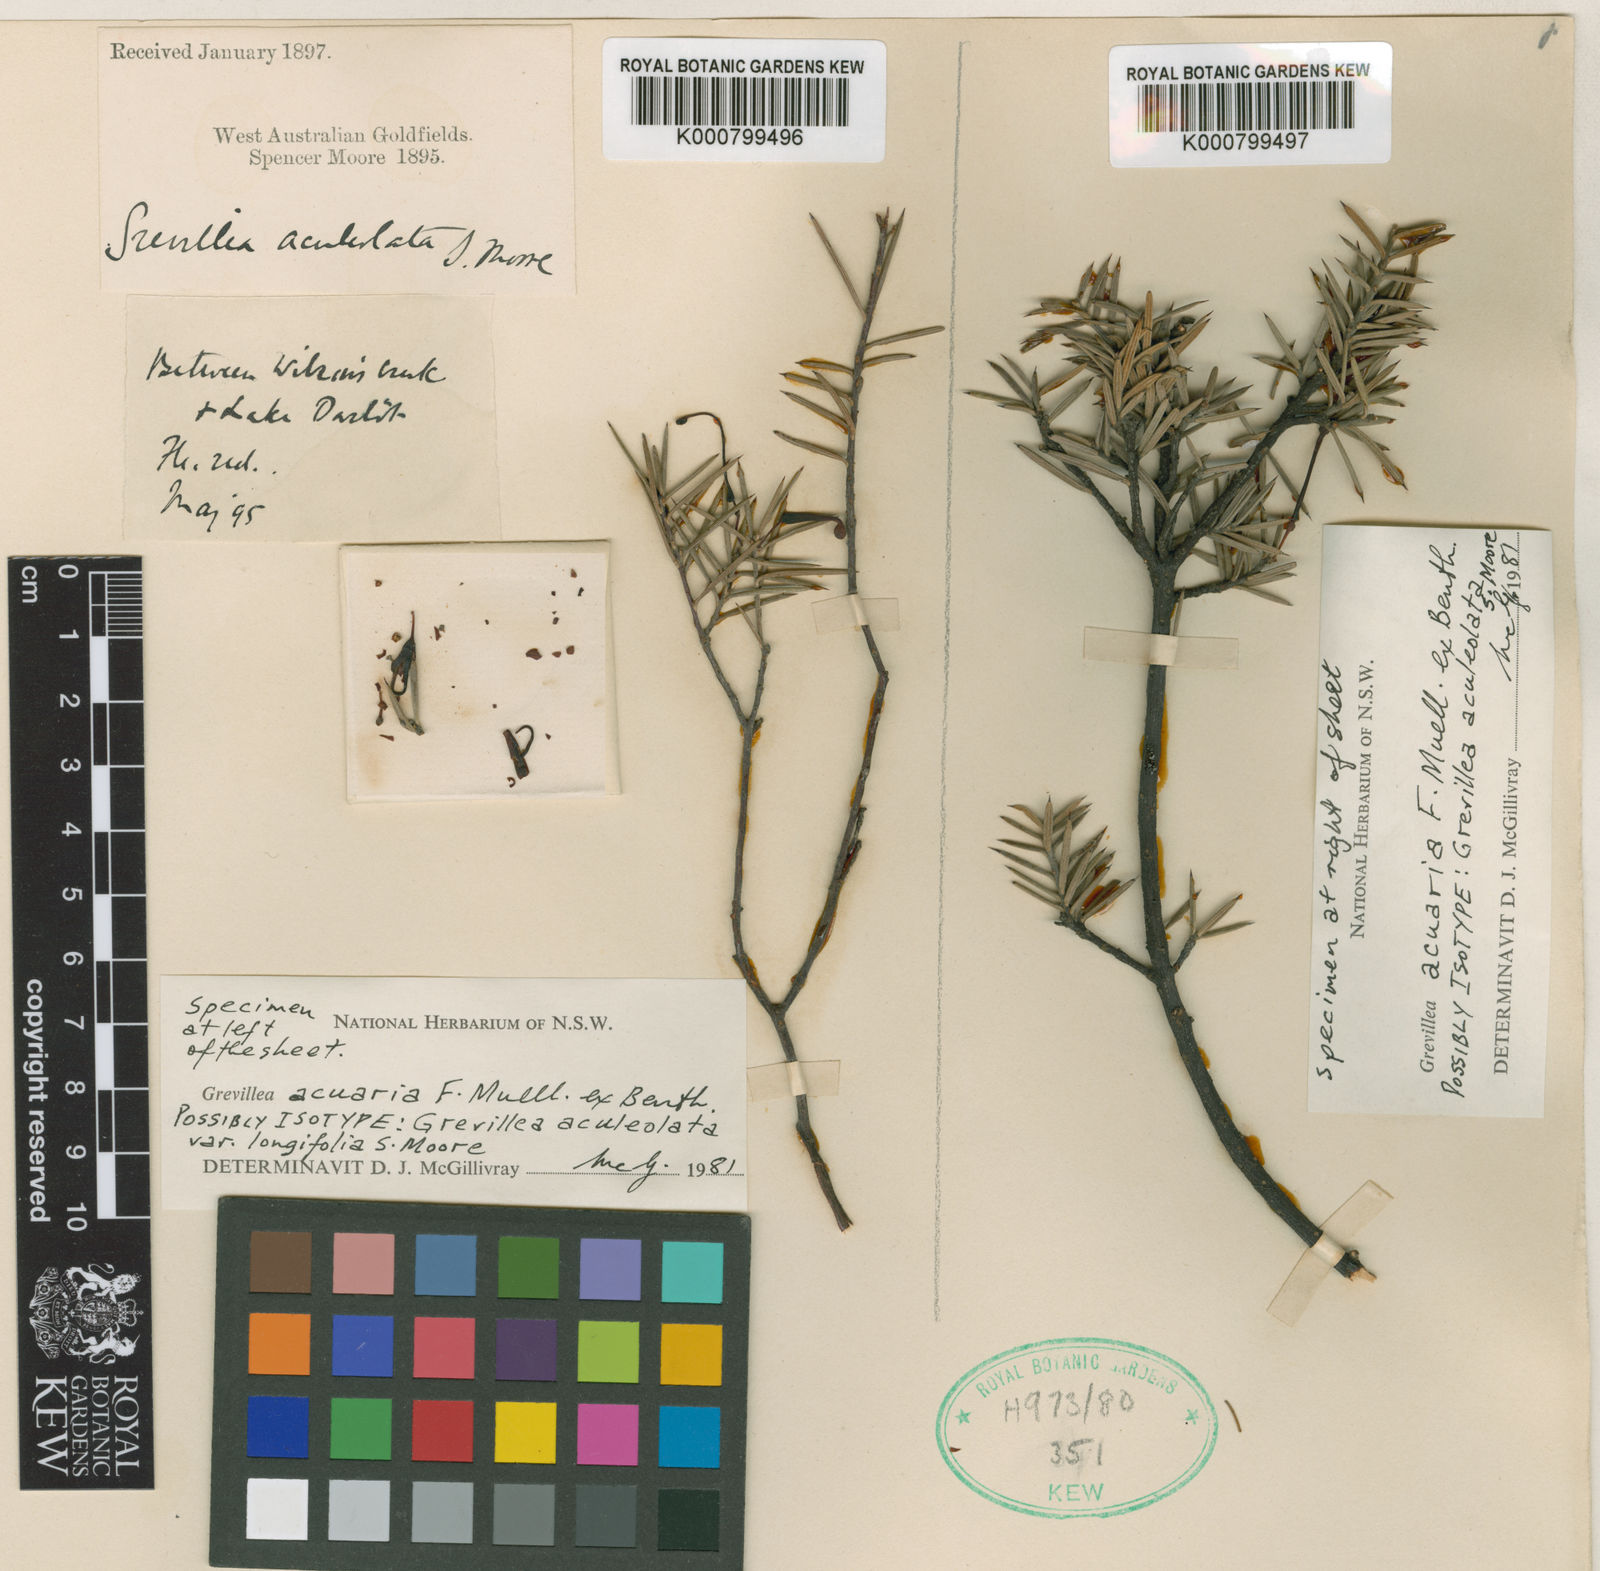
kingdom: Plantae
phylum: Tracheophyta
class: Magnoliopsida
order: Proteales
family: Proteaceae
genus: Grevillea
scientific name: Grevillea acuaria
